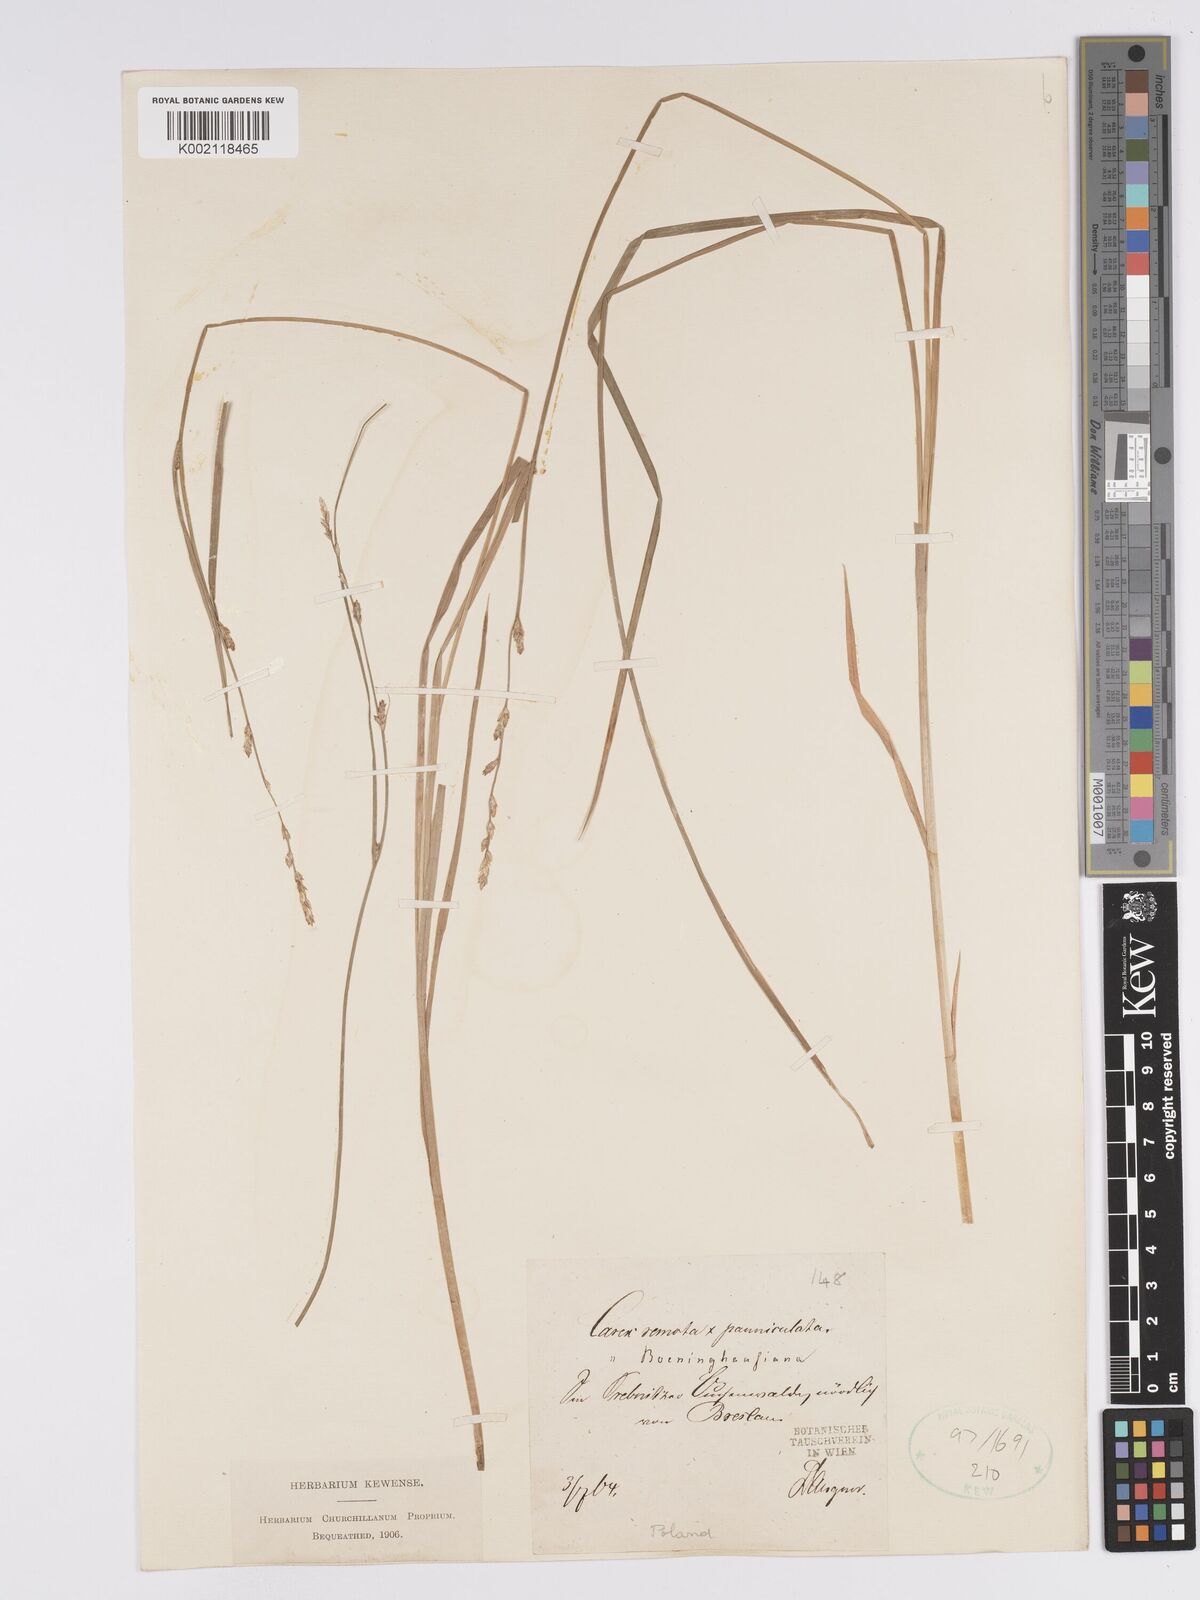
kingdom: Plantae
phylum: Tracheophyta
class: Liliopsida
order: Poales
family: Cyperaceae
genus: Carex
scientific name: Carex boenninghausiana
